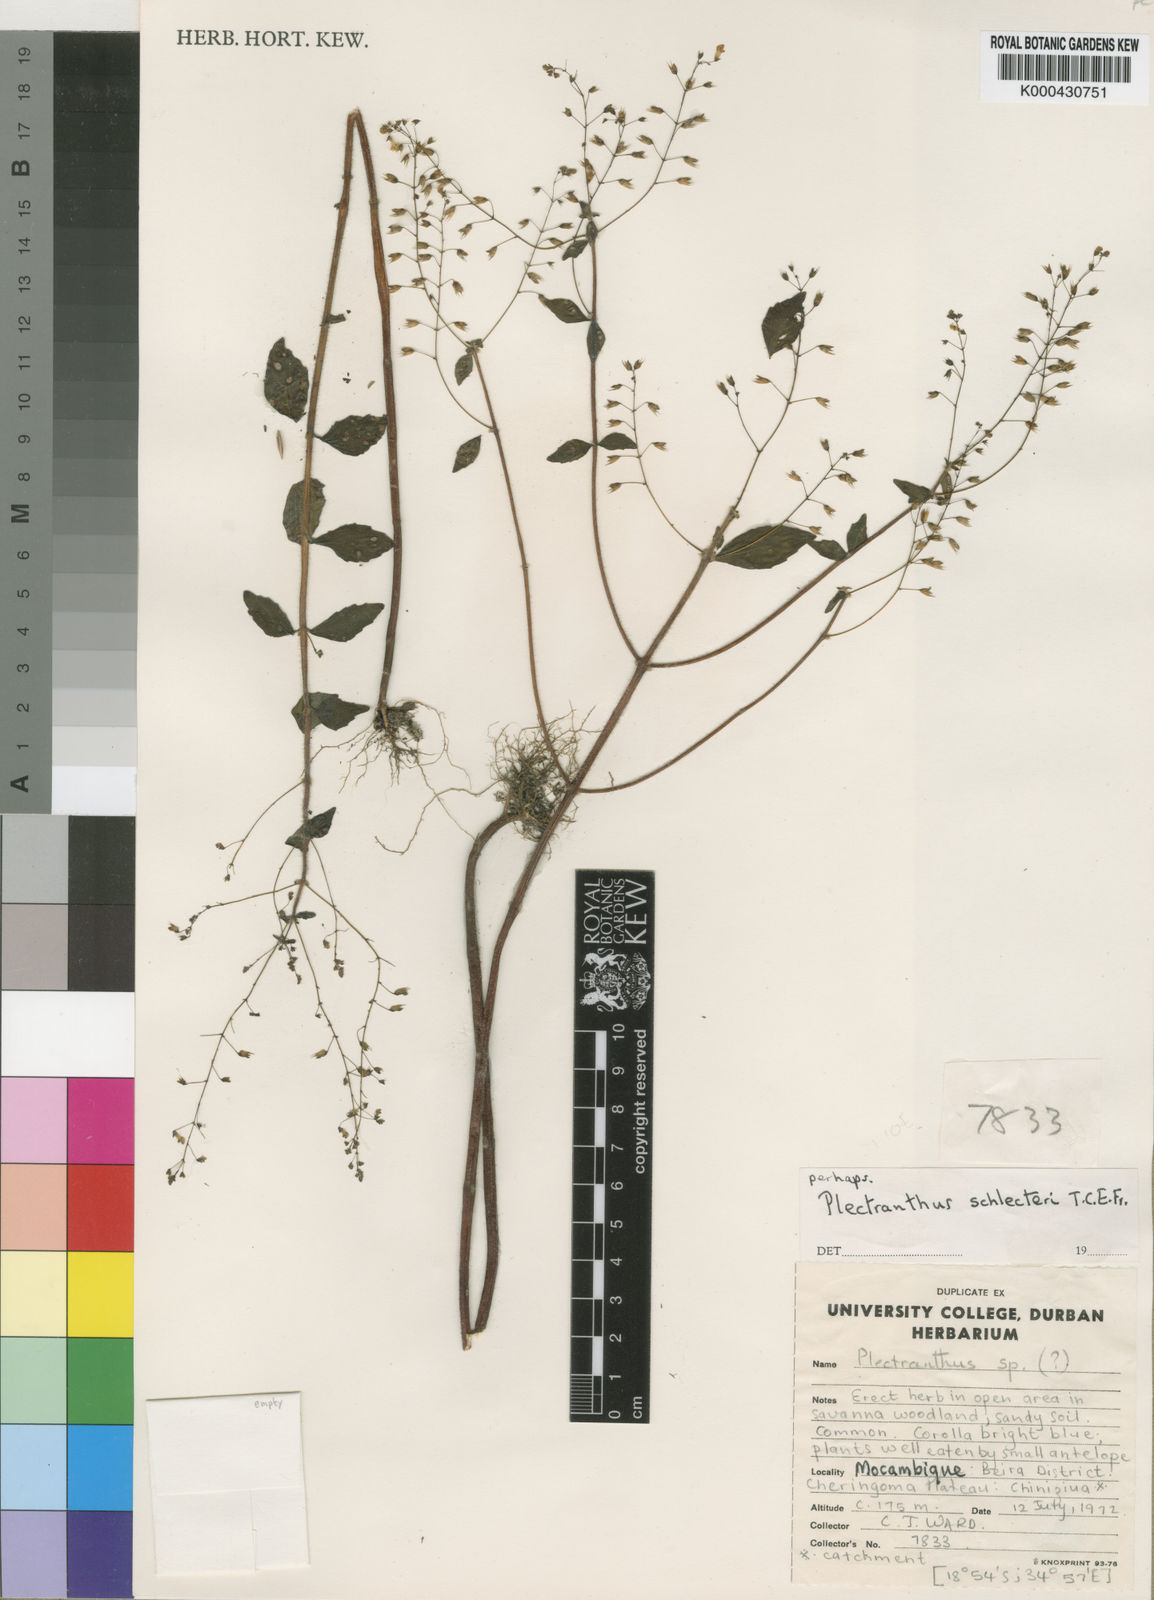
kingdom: Plantae
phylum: Tracheophyta
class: Magnoliopsida
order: Lamiales
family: Lamiaceae
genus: Coleus
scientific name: Coleus gracillimus
